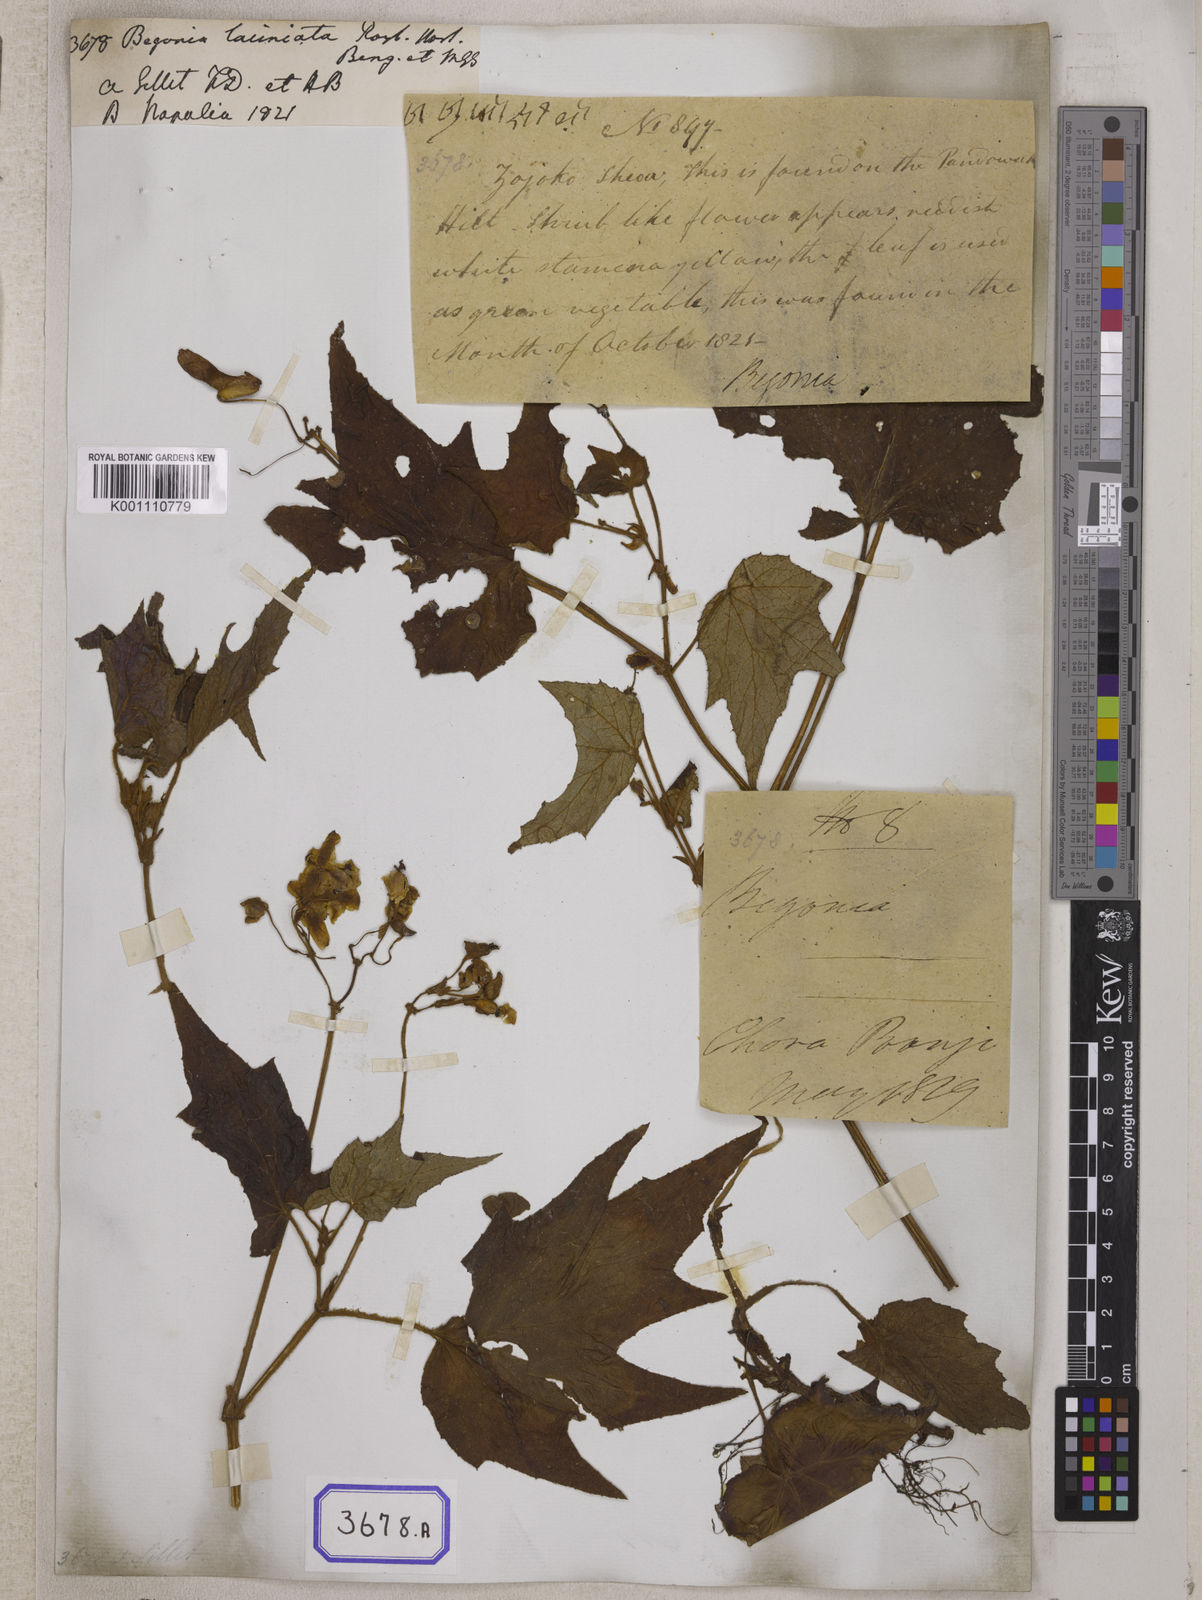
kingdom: Plantae
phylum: Tracheophyta
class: Magnoliopsida
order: Cucurbitales
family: Begoniaceae
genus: Begonia
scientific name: Begonia palmata
